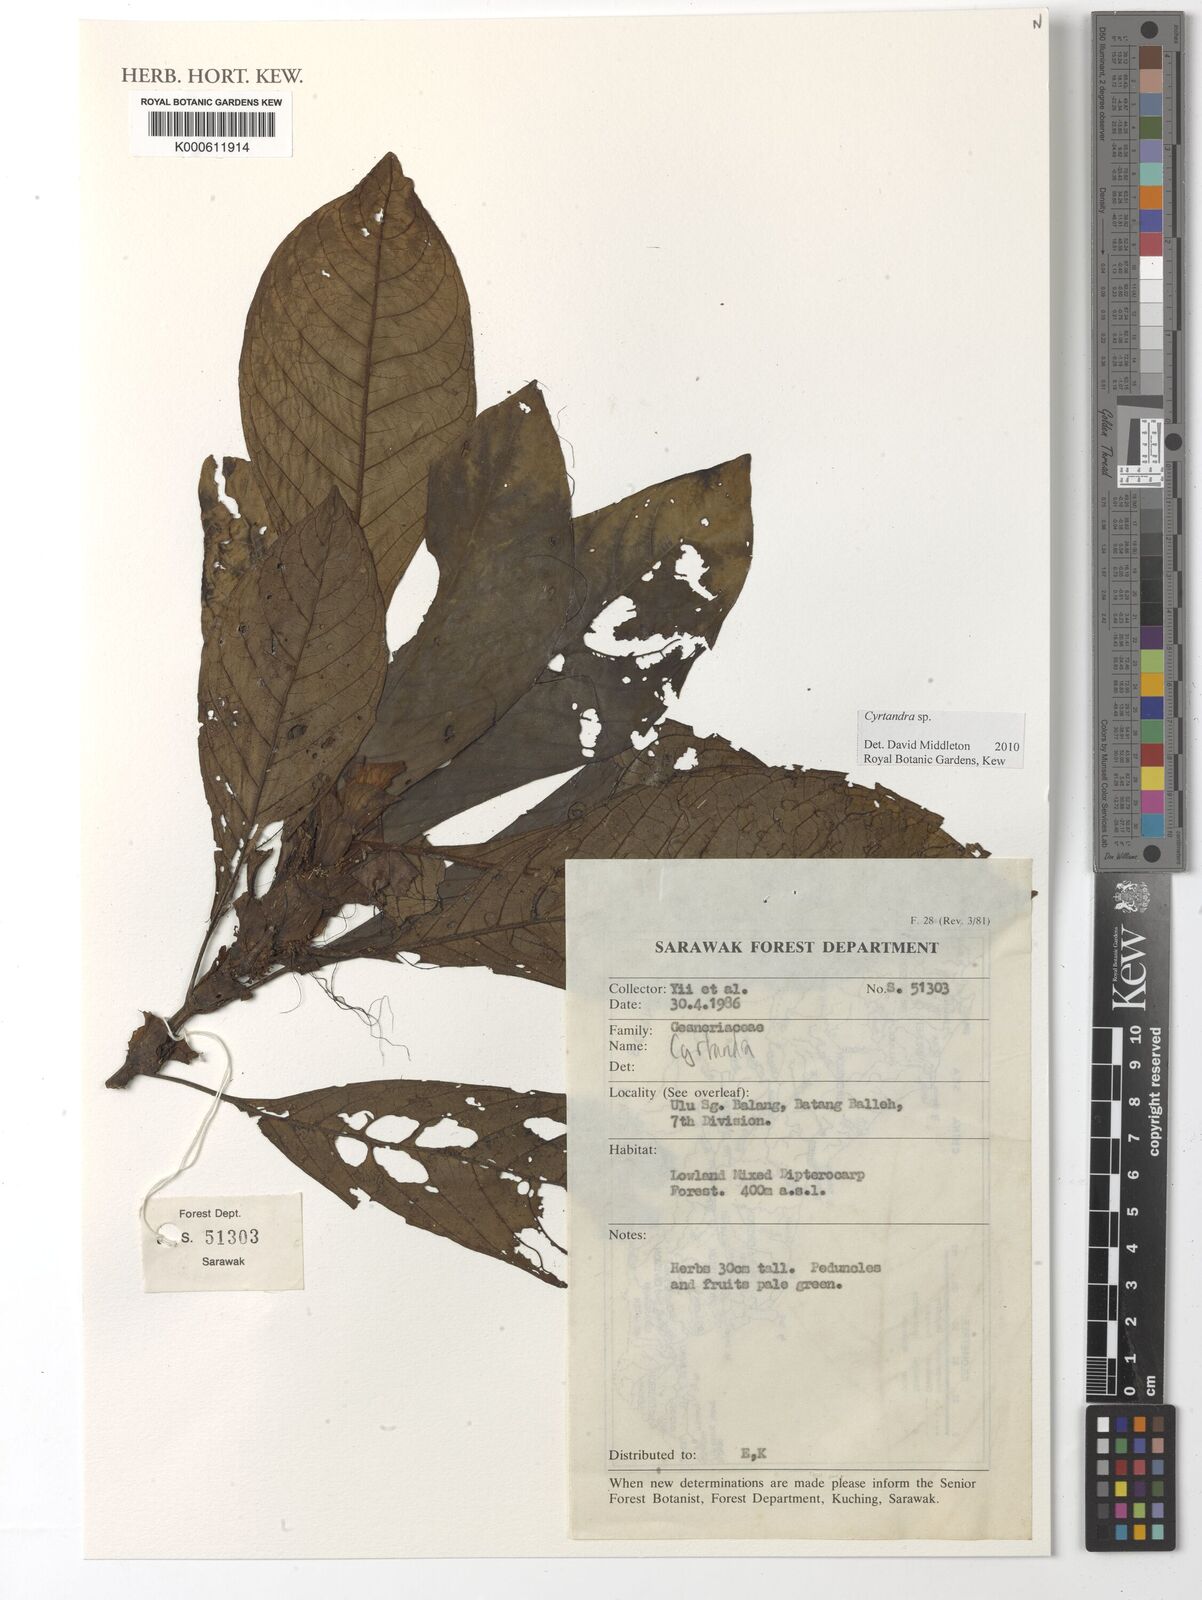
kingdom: Plantae
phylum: Tracheophyta
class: Magnoliopsida
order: Lamiales
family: Gesneriaceae
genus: Cyrtandra
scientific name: Cyrtandra
